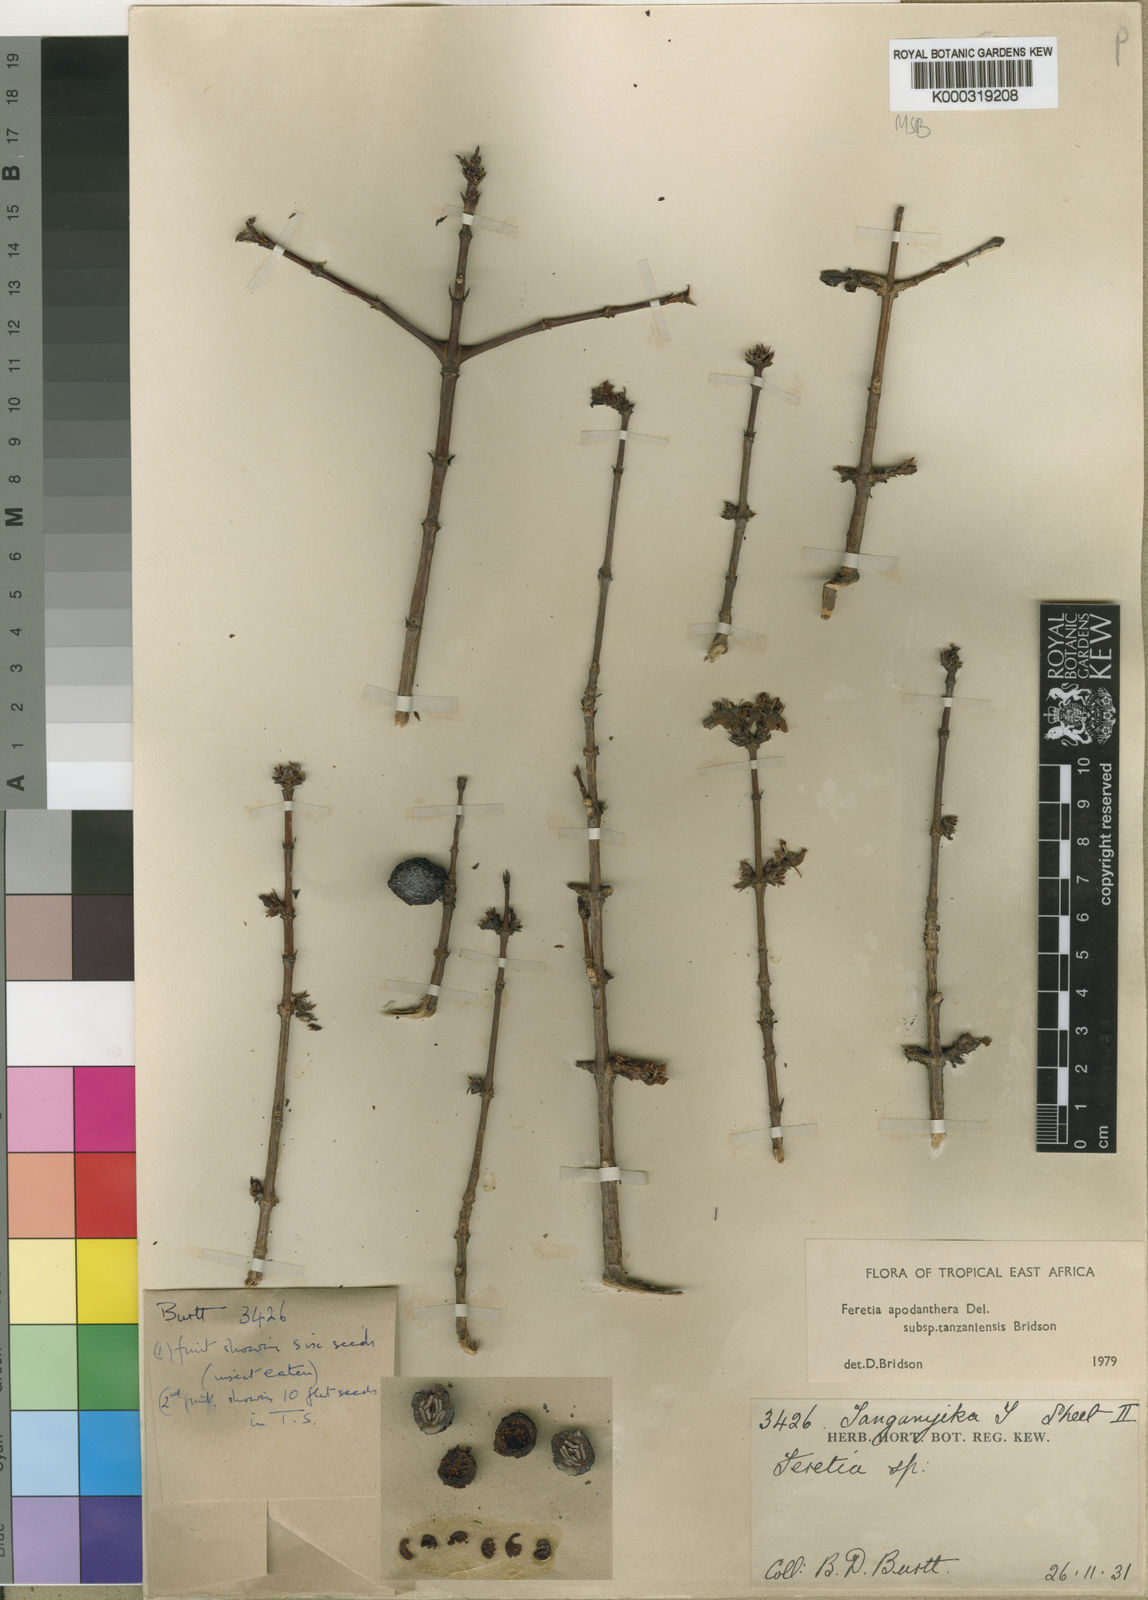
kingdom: Plantae
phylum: Tracheophyta
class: Magnoliopsida
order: Gentianales
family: Rubiaceae
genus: Feretia
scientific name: Feretia apodanthera
